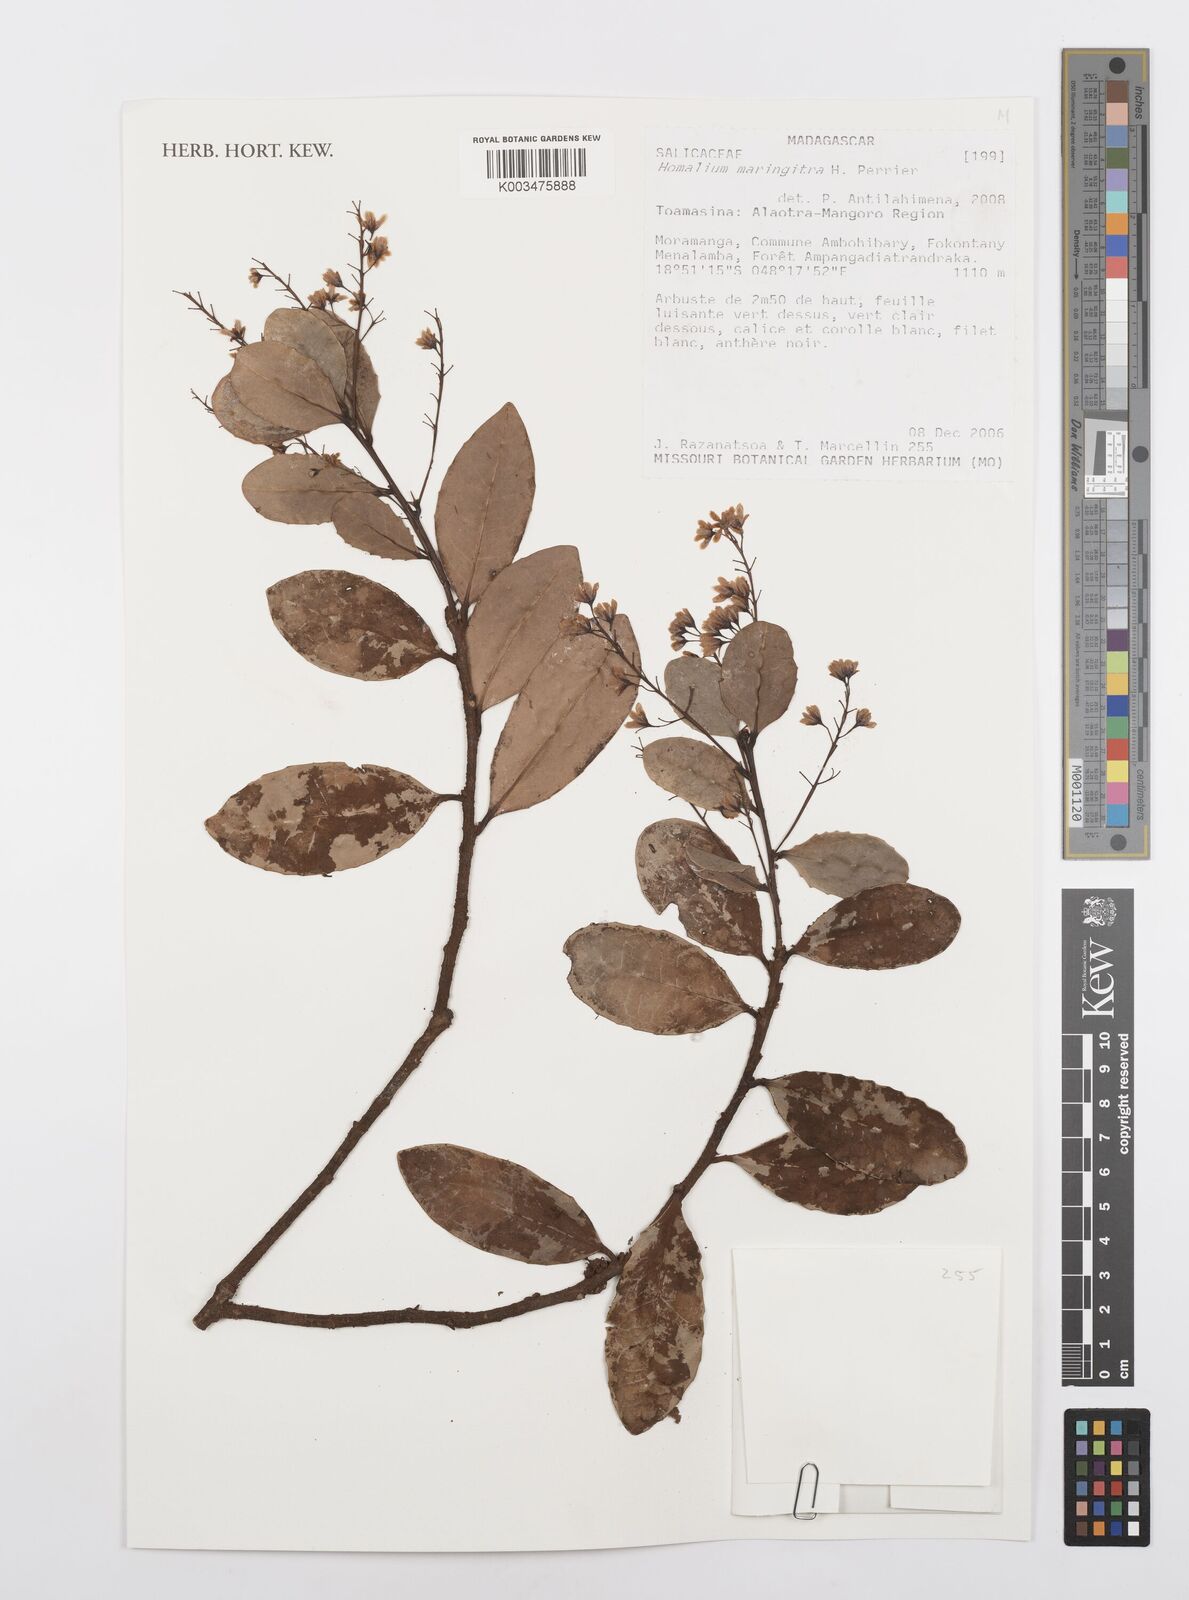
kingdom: Plantae
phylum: Tracheophyta
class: Magnoliopsida
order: Malpighiales
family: Salicaceae
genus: Homalium
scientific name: Homalium maringitra
